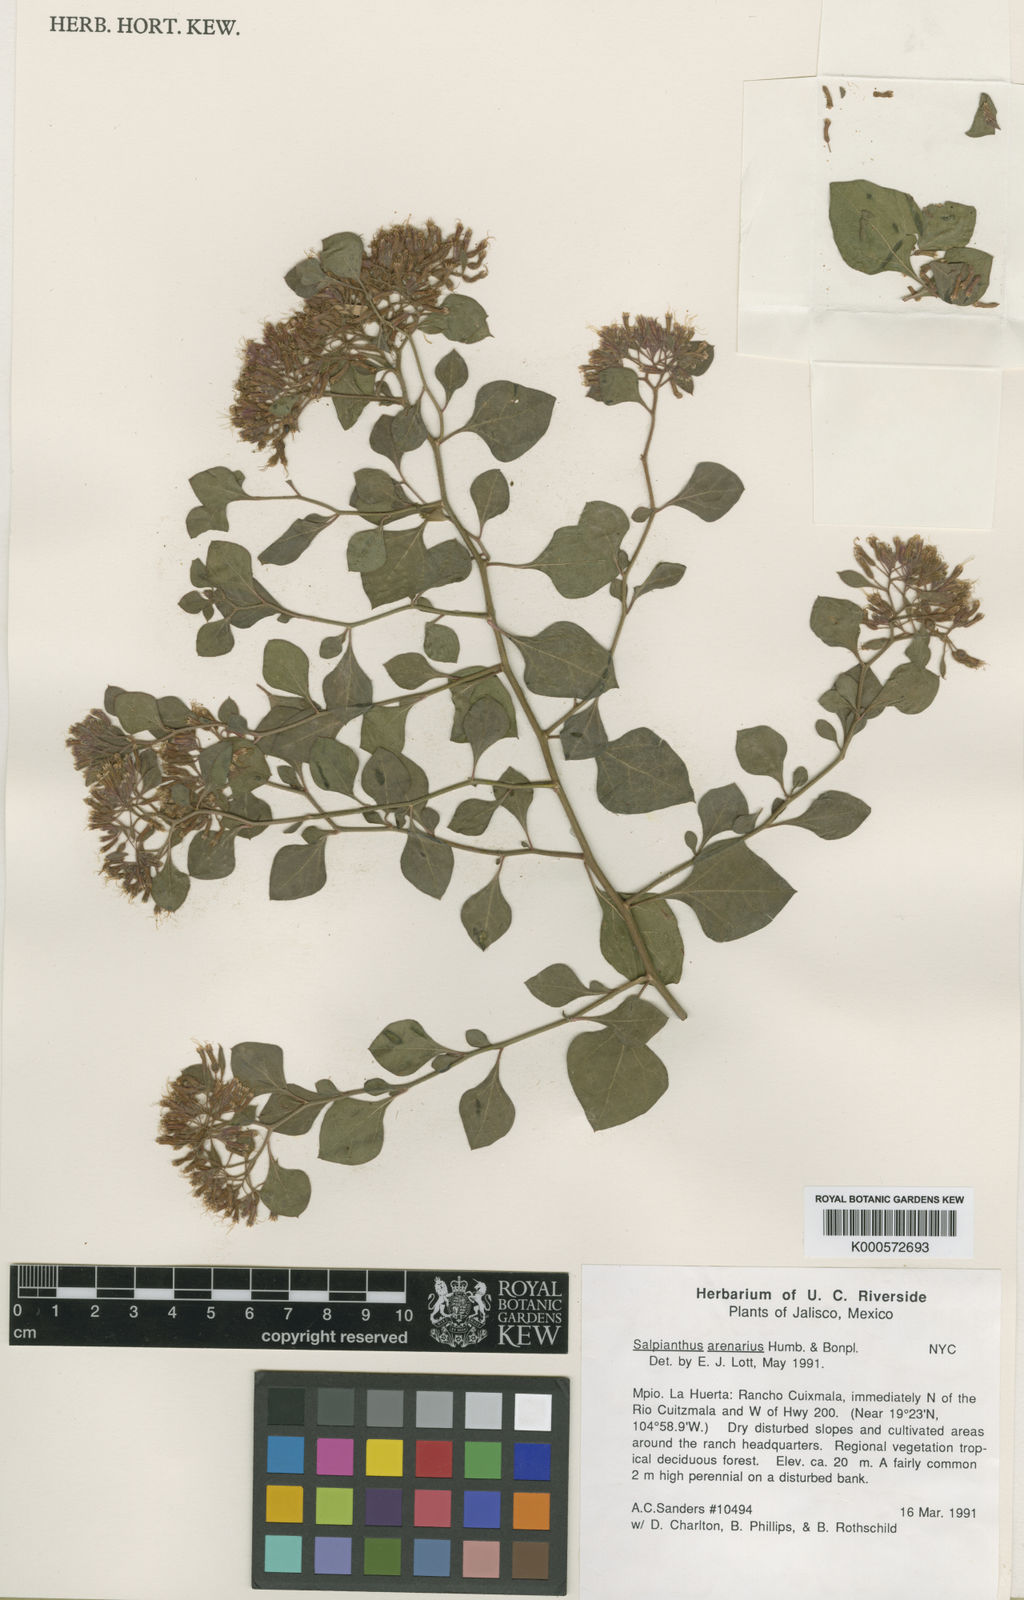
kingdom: Plantae
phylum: Tracheophyta
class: Magnoliopsida
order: Caryophyllales
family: Nyctaginaceae
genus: Salpianthus
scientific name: Salpianthus aequalis
